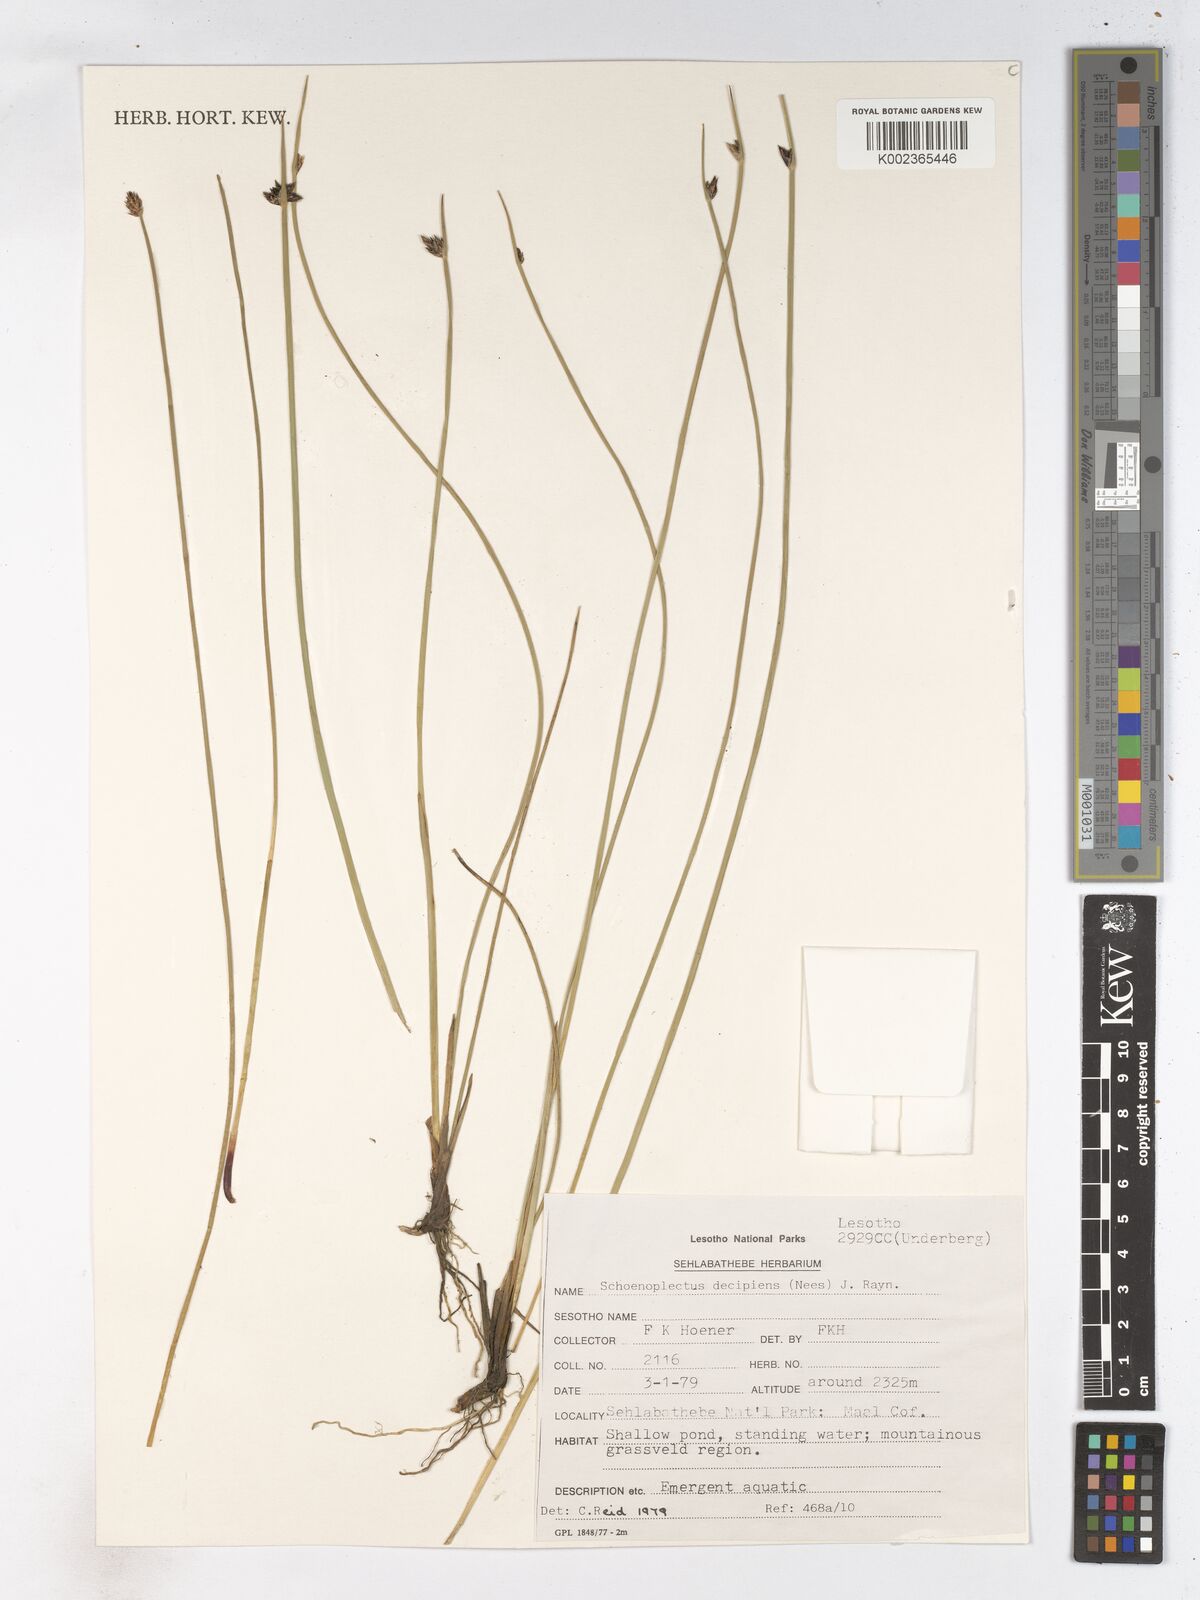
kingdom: Plantae
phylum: Tracheophyta
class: Liliopsida
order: Poales
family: Cyperaceae
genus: Schoenoplectiella
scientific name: Schoenoplectiella paludicola
